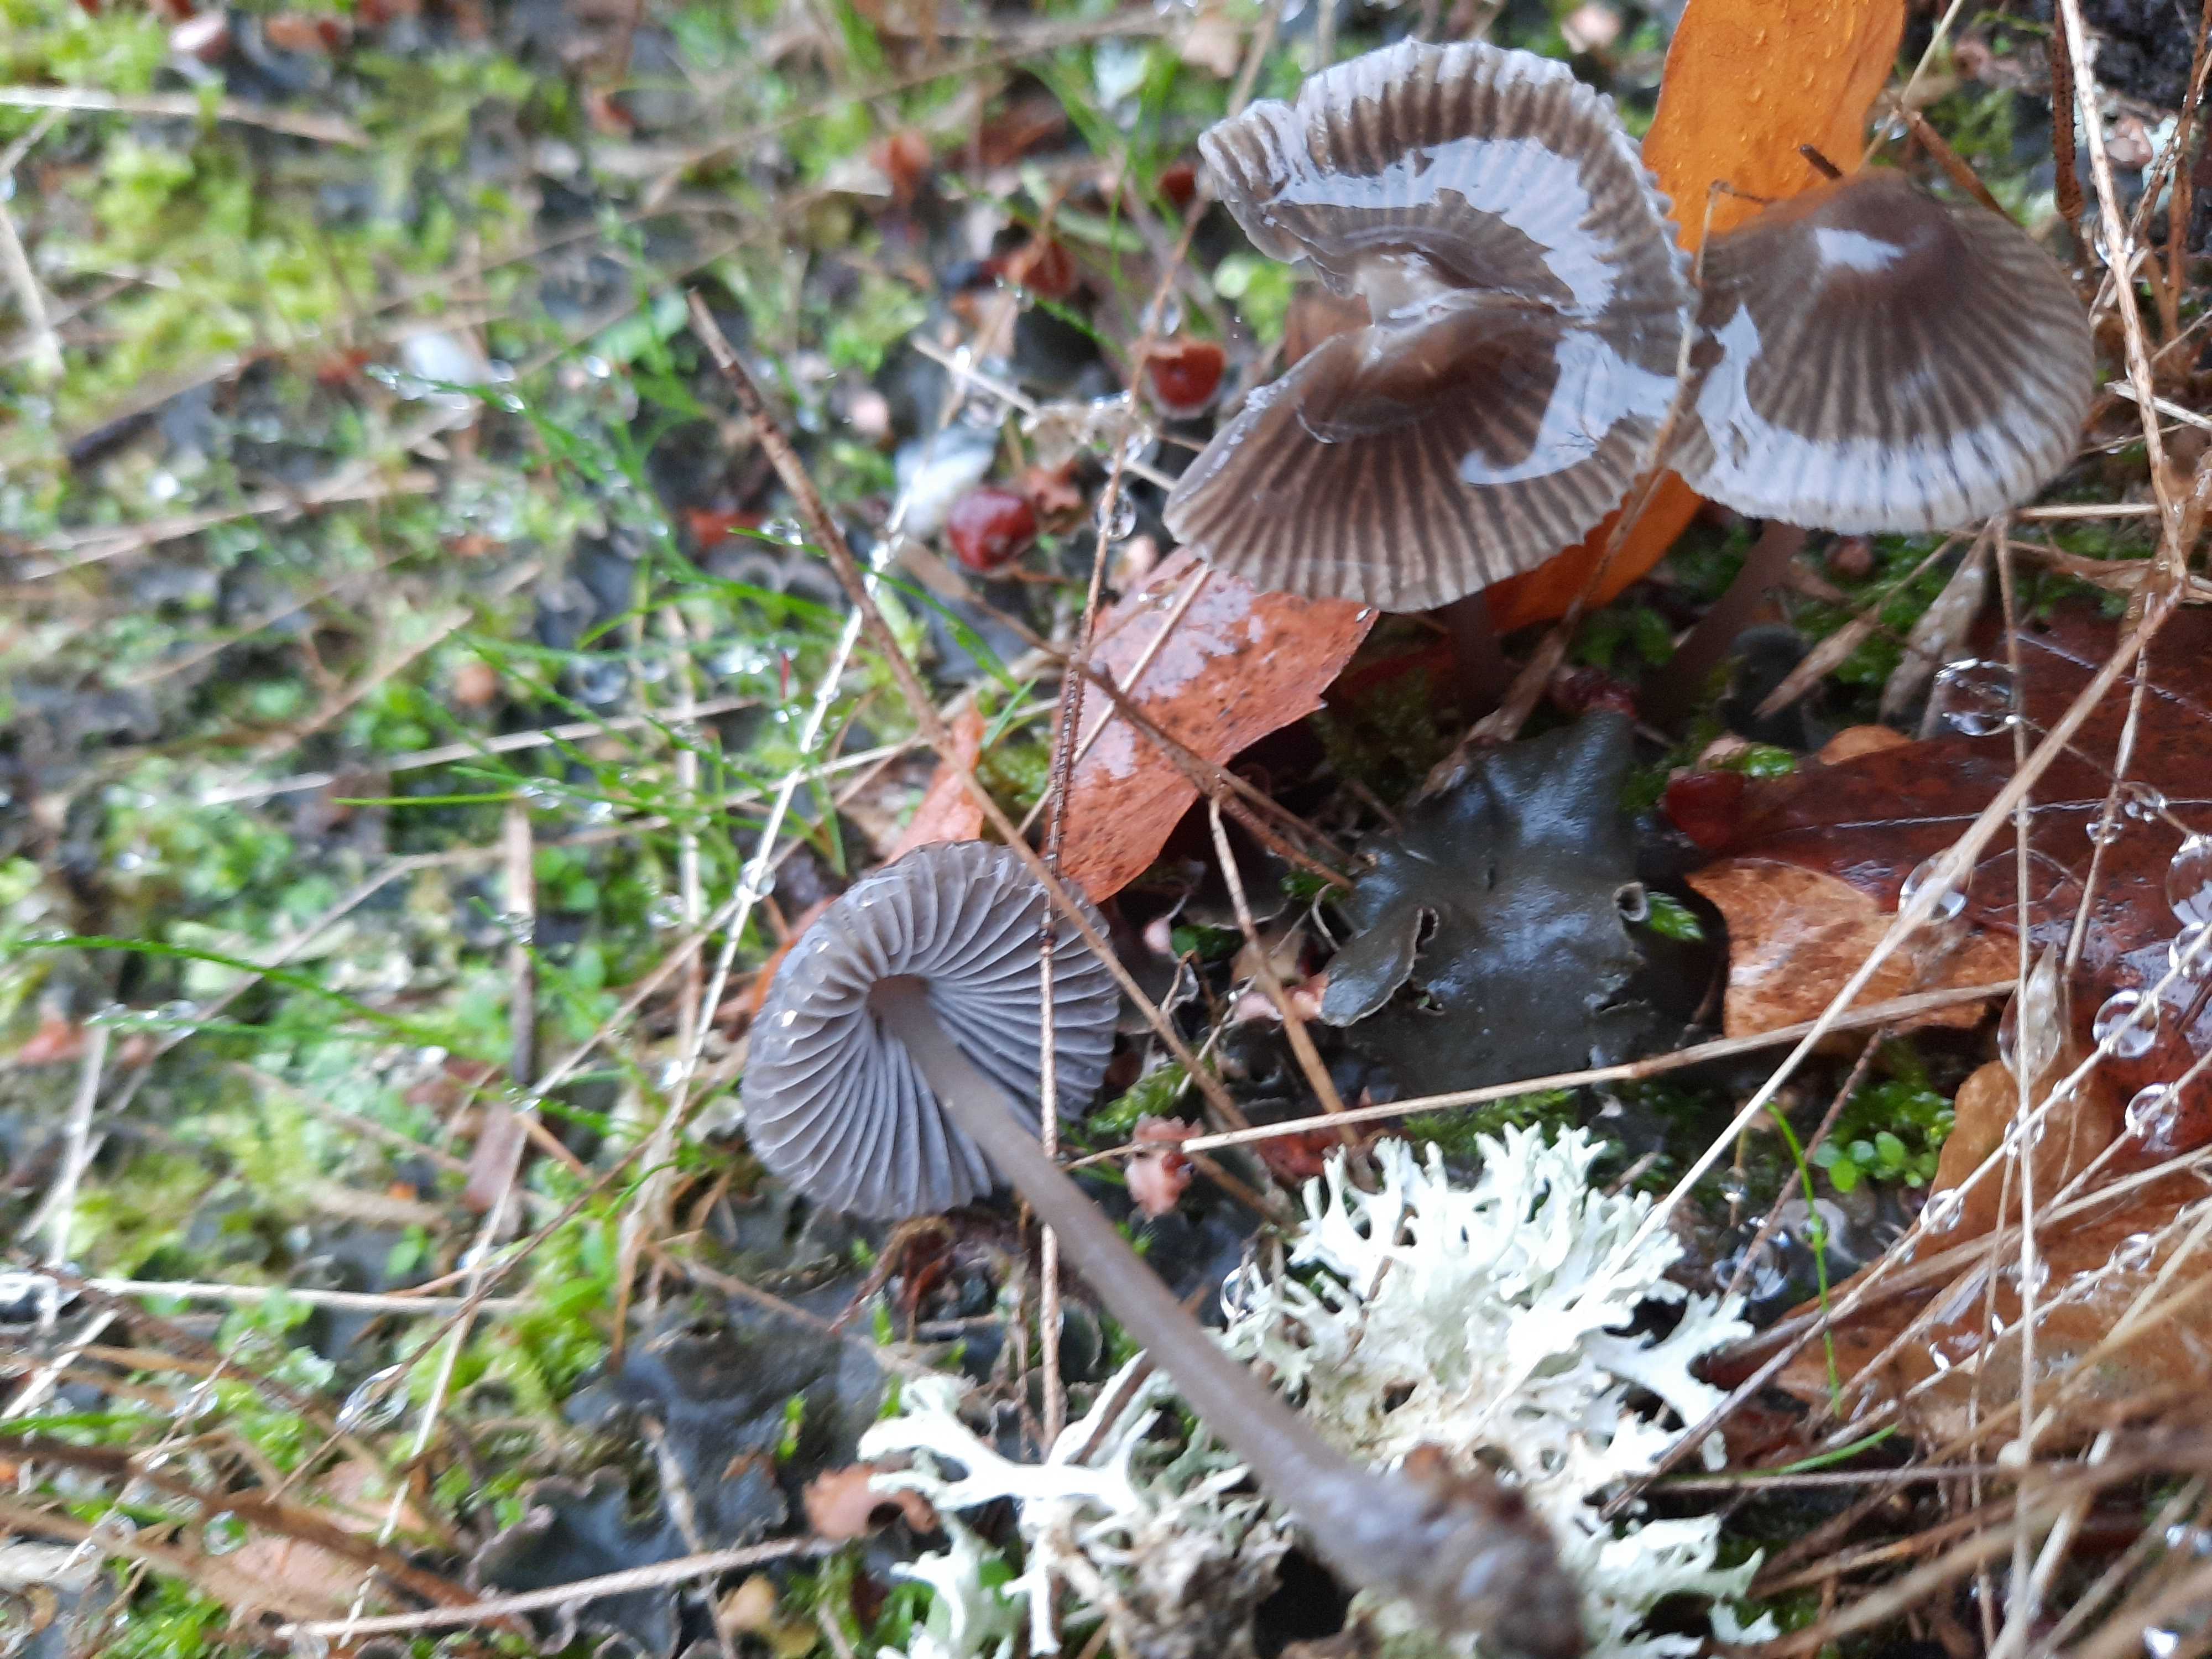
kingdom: Fungi
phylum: Basidiomycota
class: Agaricomycetes
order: Agaricales
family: Mycenaceae
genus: Mycena
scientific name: Mycena aetites
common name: plæne-huesvamp
